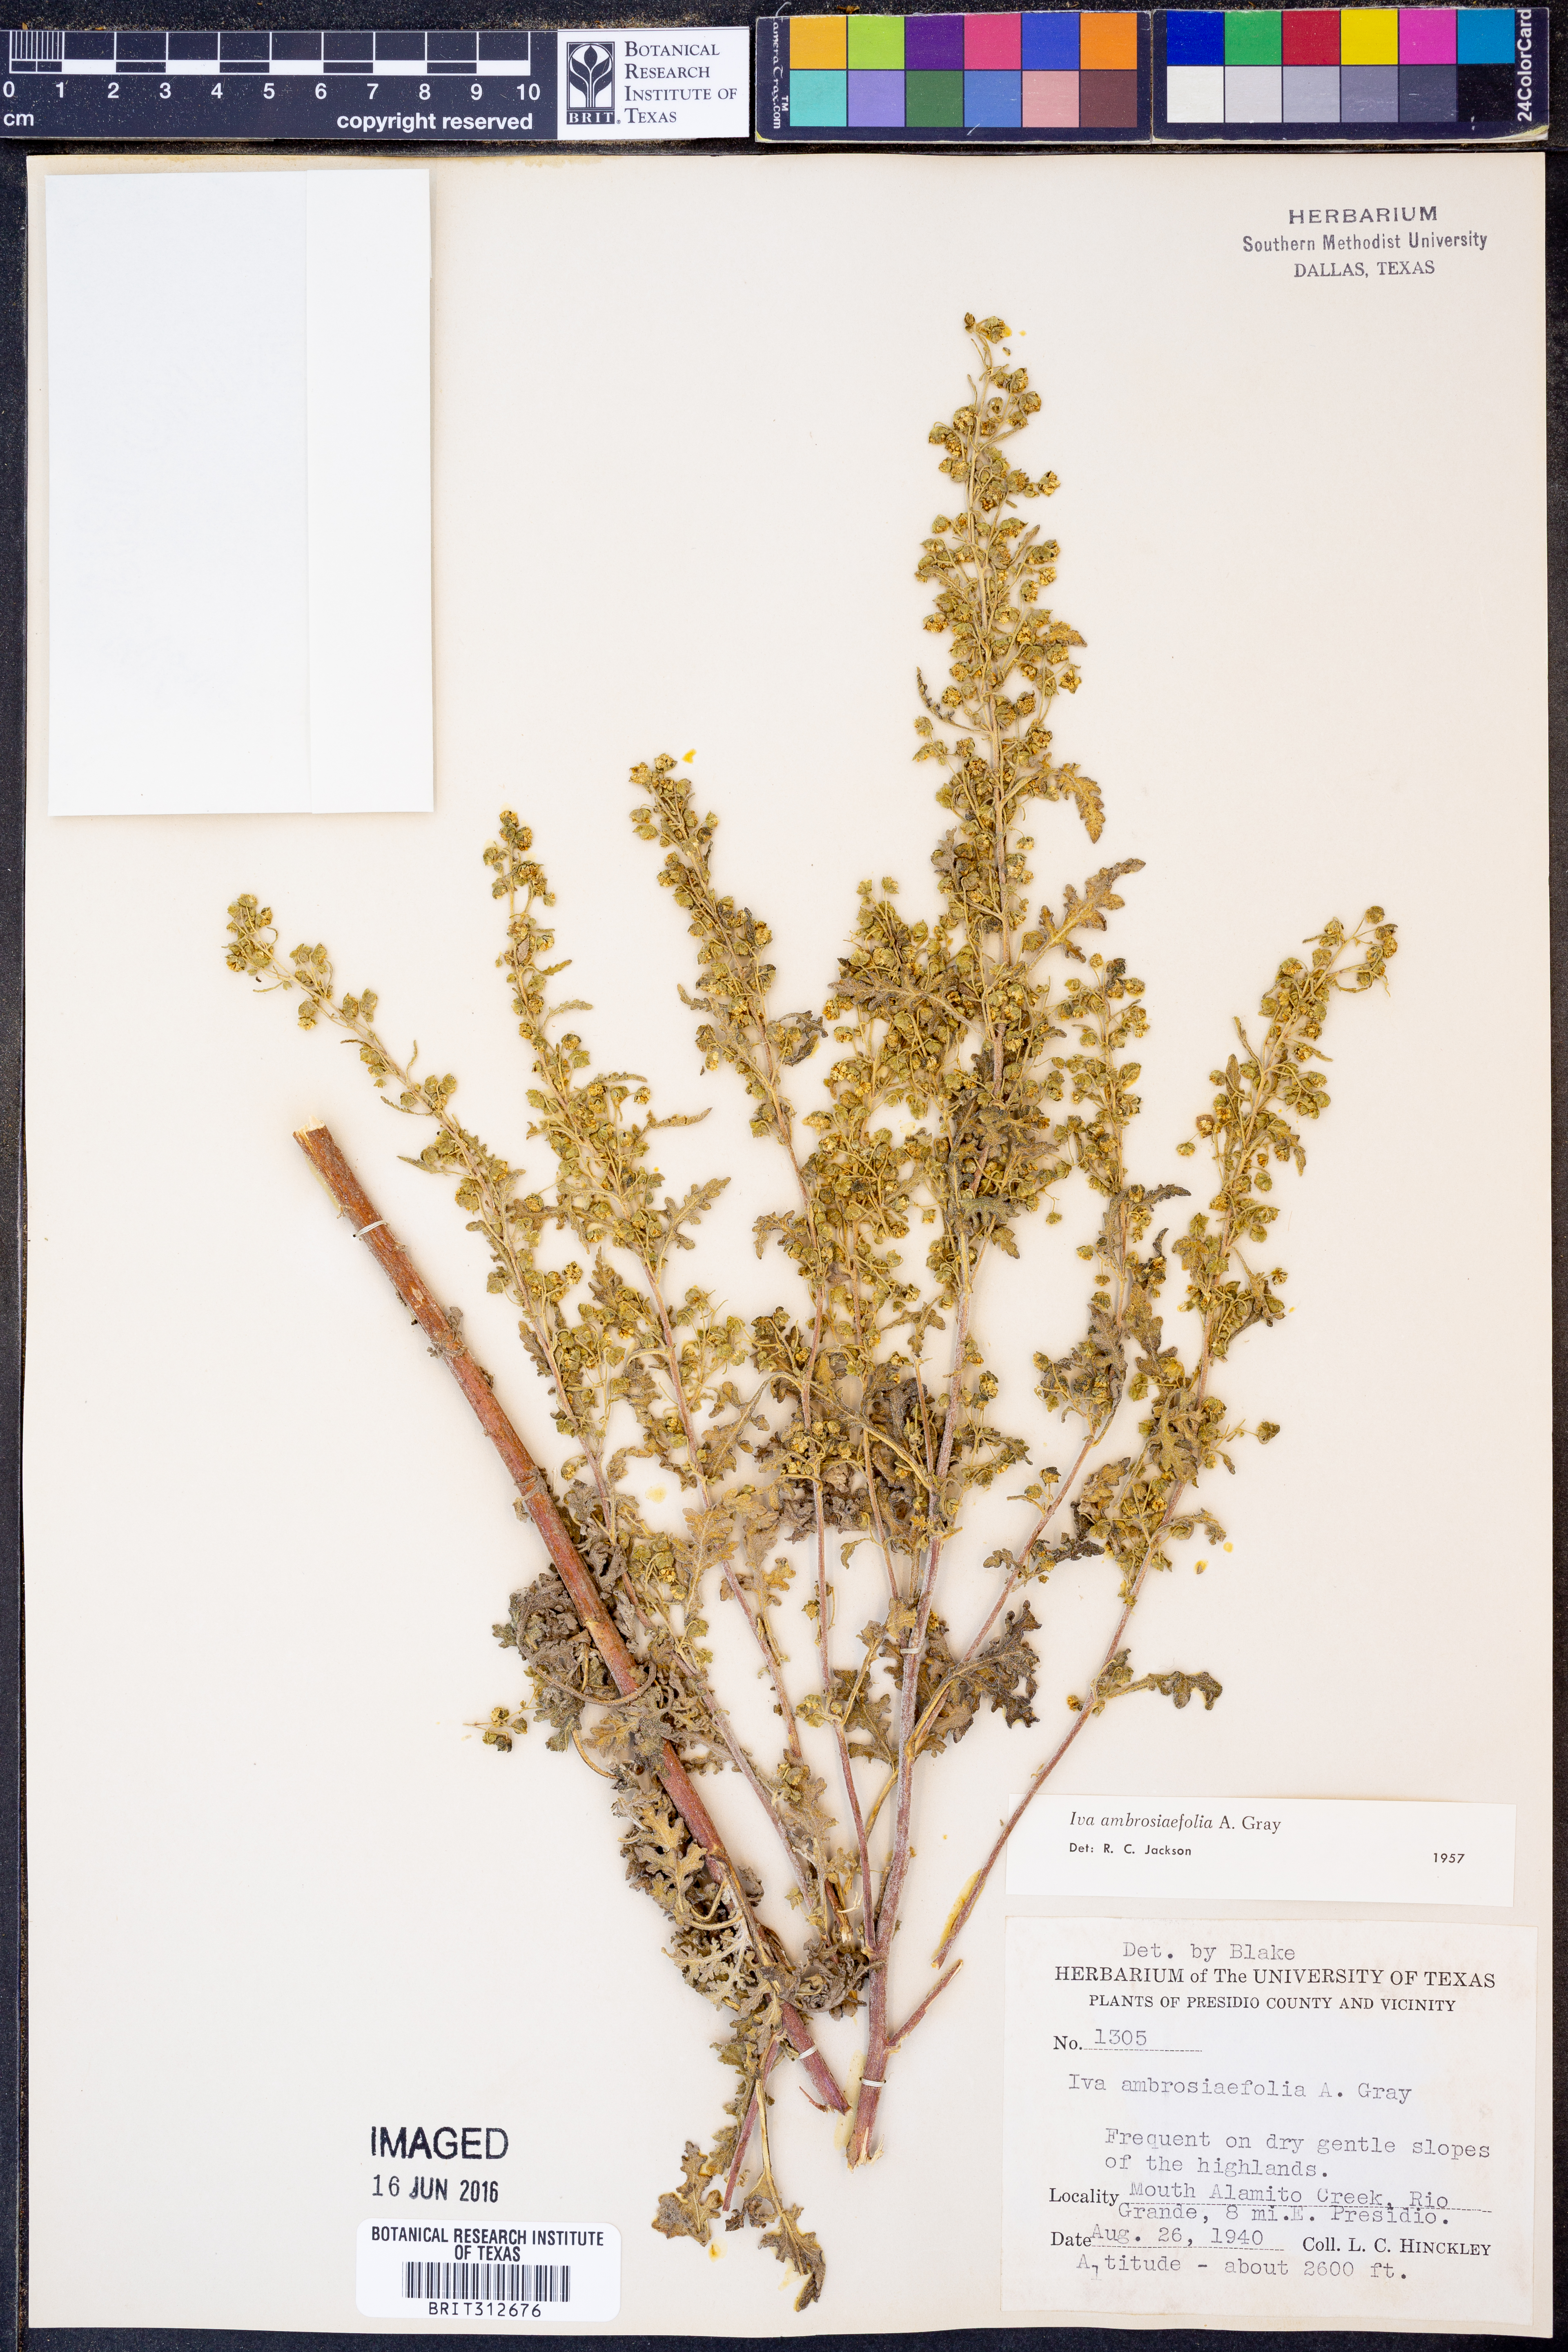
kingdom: Plantae
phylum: Tracheophyta
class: Magnoliopsida
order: Asterales
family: Asteraceae
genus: Hedosyne
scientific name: Hedosyne ambrosiifolia
